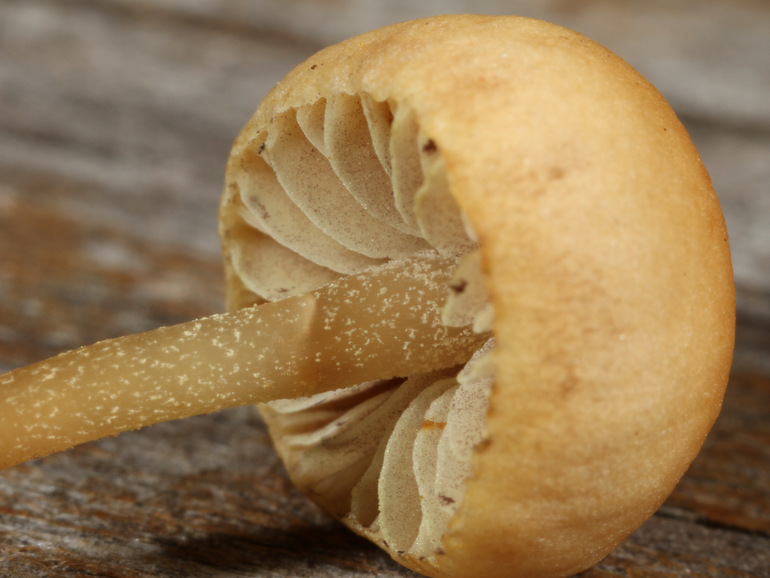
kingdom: Fungi
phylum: Basidiomycota
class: Agaricomycetes
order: Agaricales
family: Strophariaceae
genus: Bogbodia
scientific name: Bogbodia uda
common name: tørve-svovlhat
